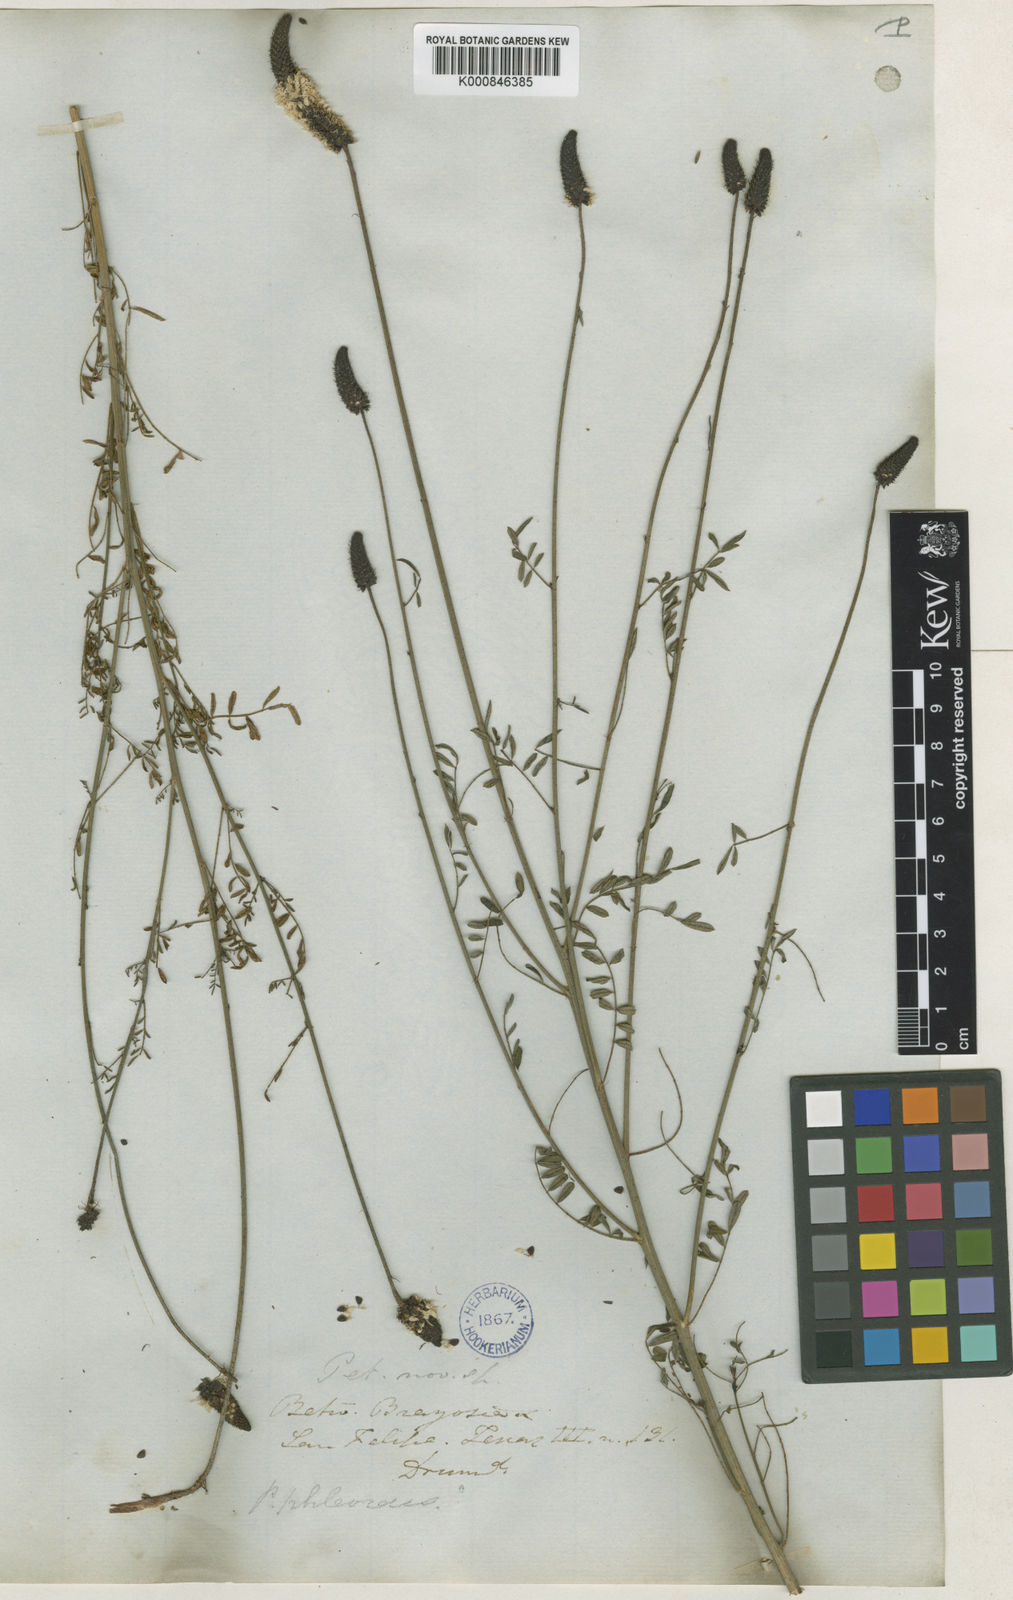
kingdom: Plantae
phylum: Tracheophyta
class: Magnoliopsida
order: Fabales
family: Fabaceae
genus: Dalea
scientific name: Dalea phleoides
